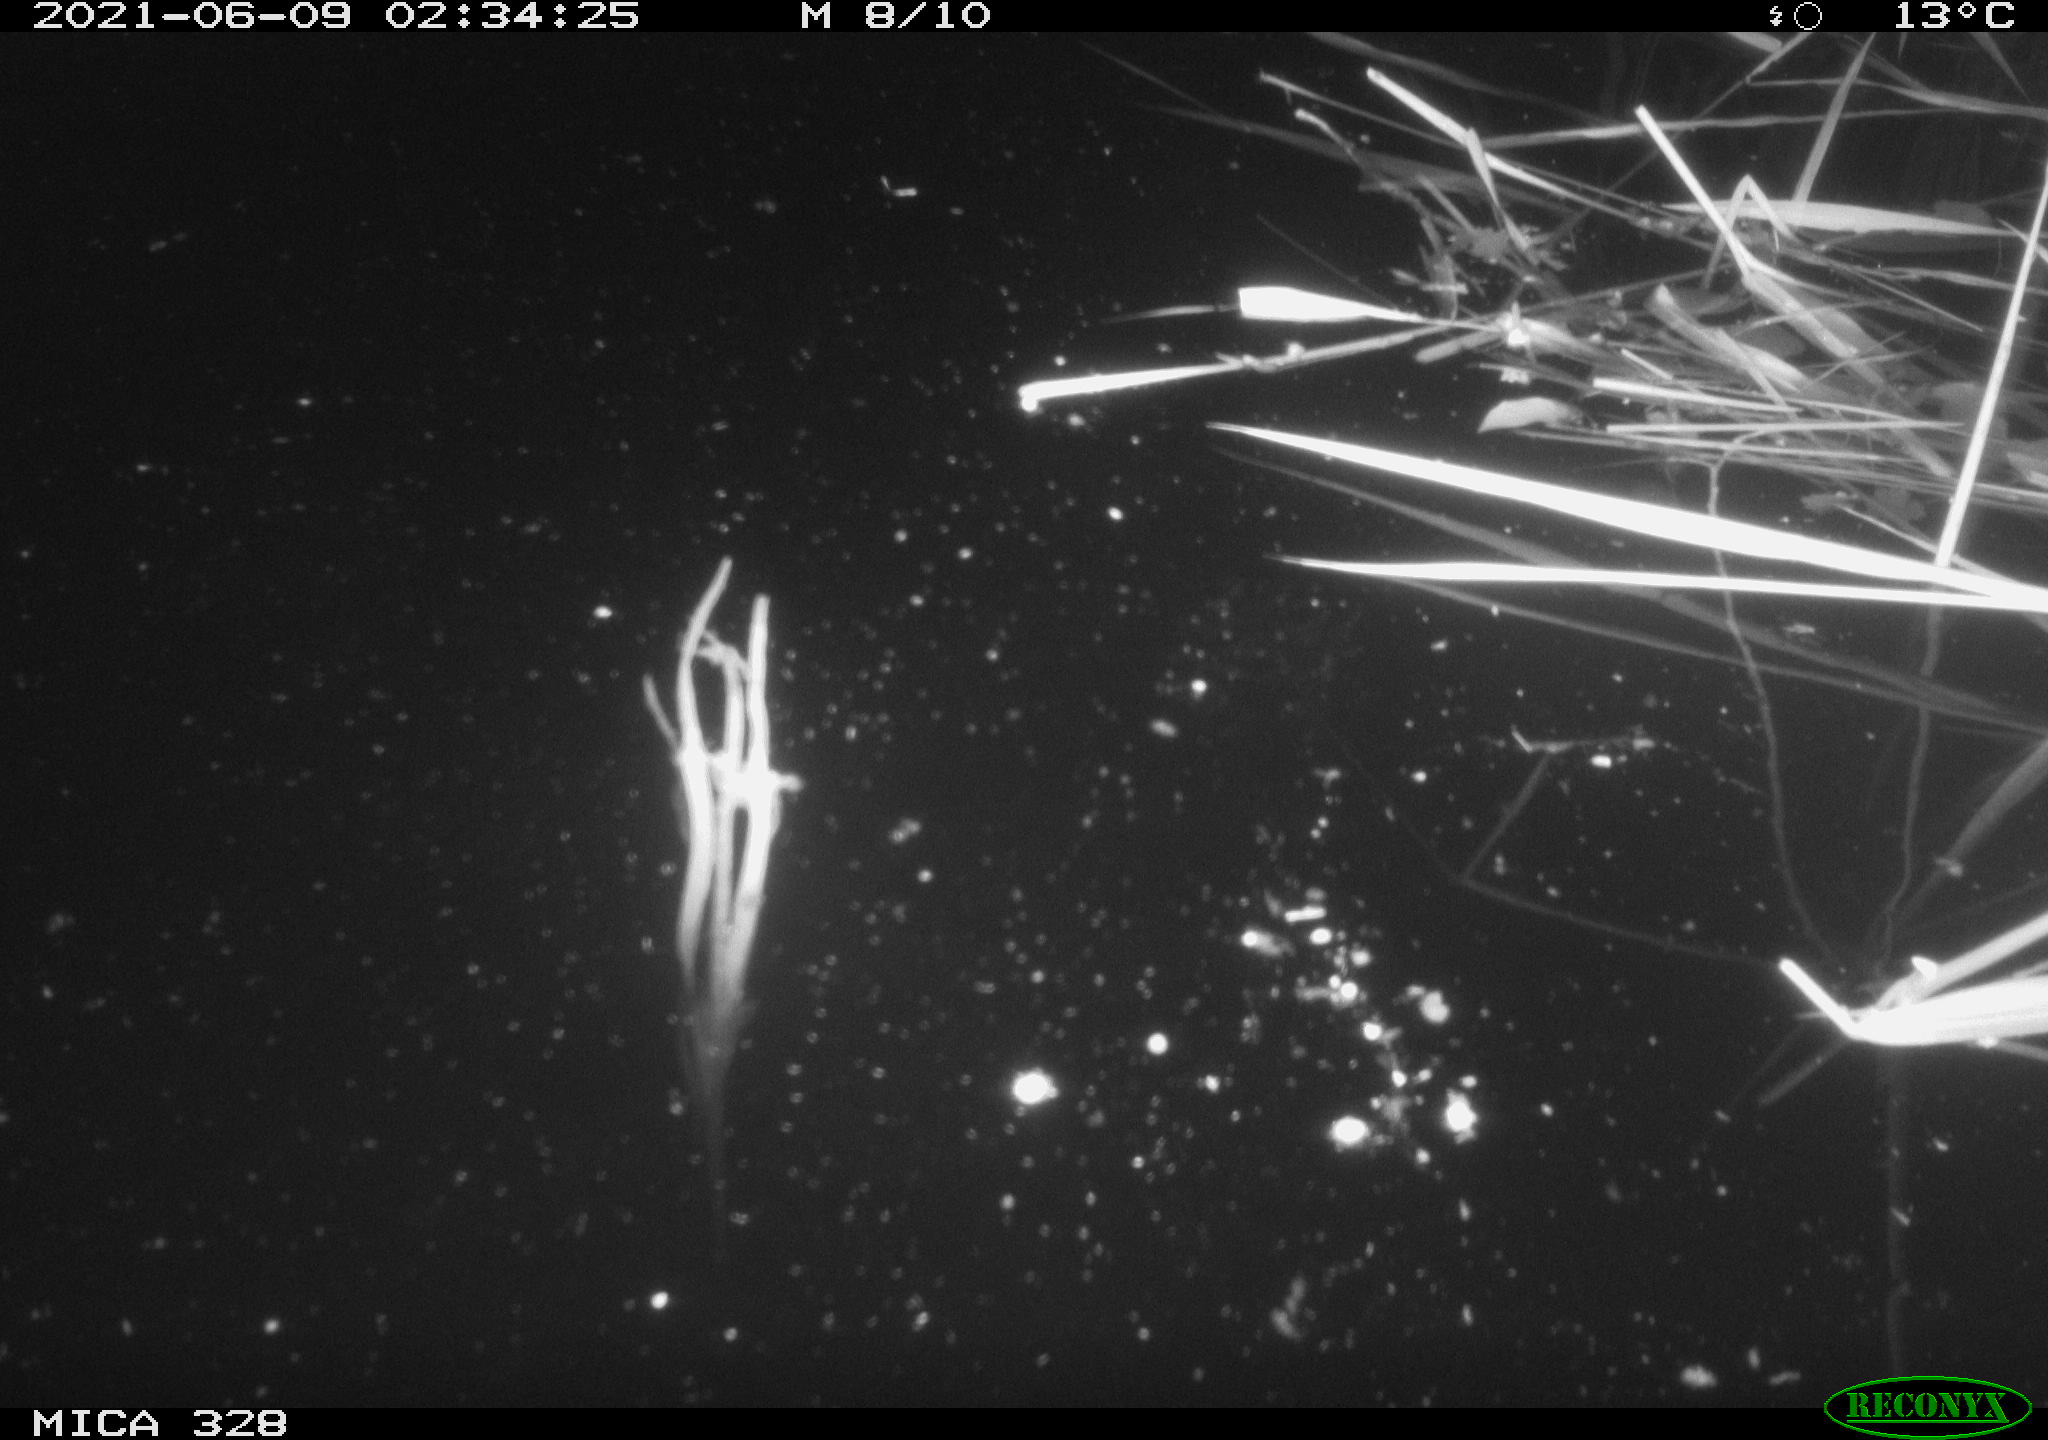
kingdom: Animalia
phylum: Chordata
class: Mammalia
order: Rodentia
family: Cricetidae
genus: Ondatra
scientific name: Ondatra zibethicus
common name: Muskrat
